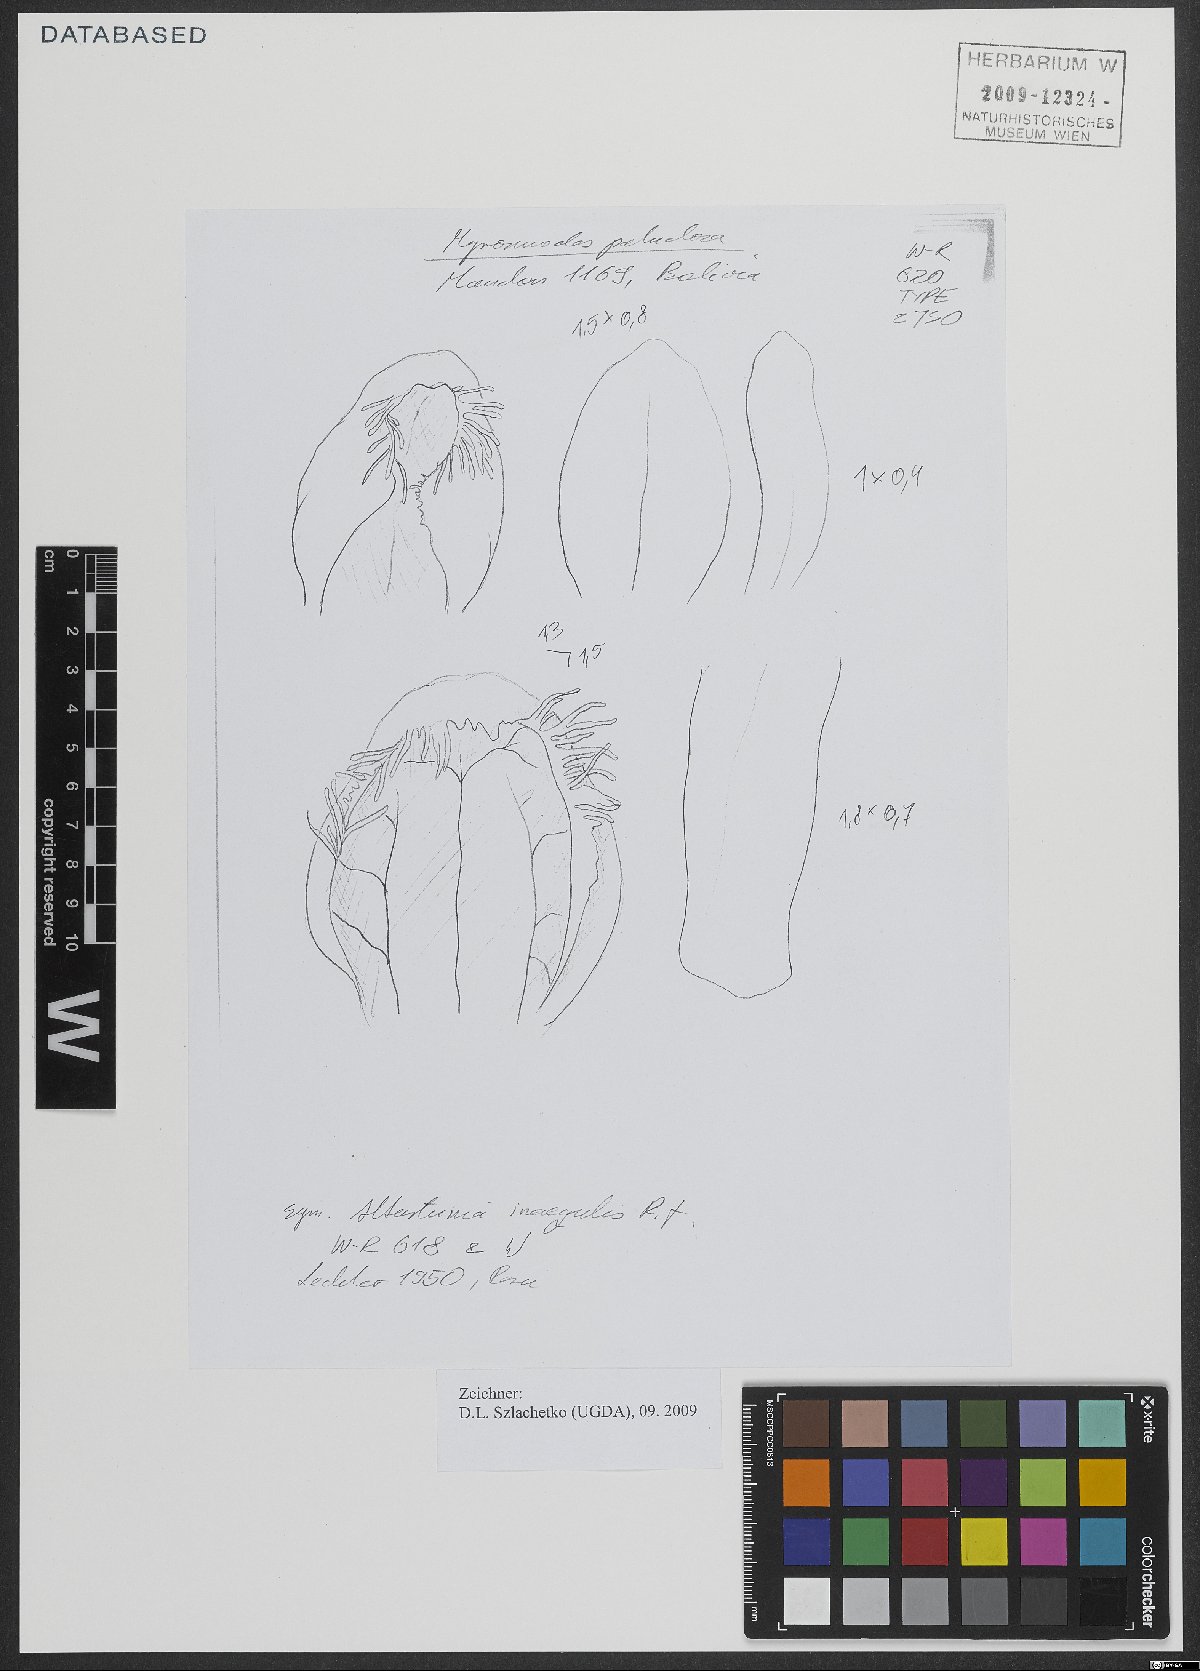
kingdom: Plantae
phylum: Tracheophyta
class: Liliopsida
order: Asparagales
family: Orchidaceae
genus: Myrosmodes
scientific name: Myrosmodes paludosa
